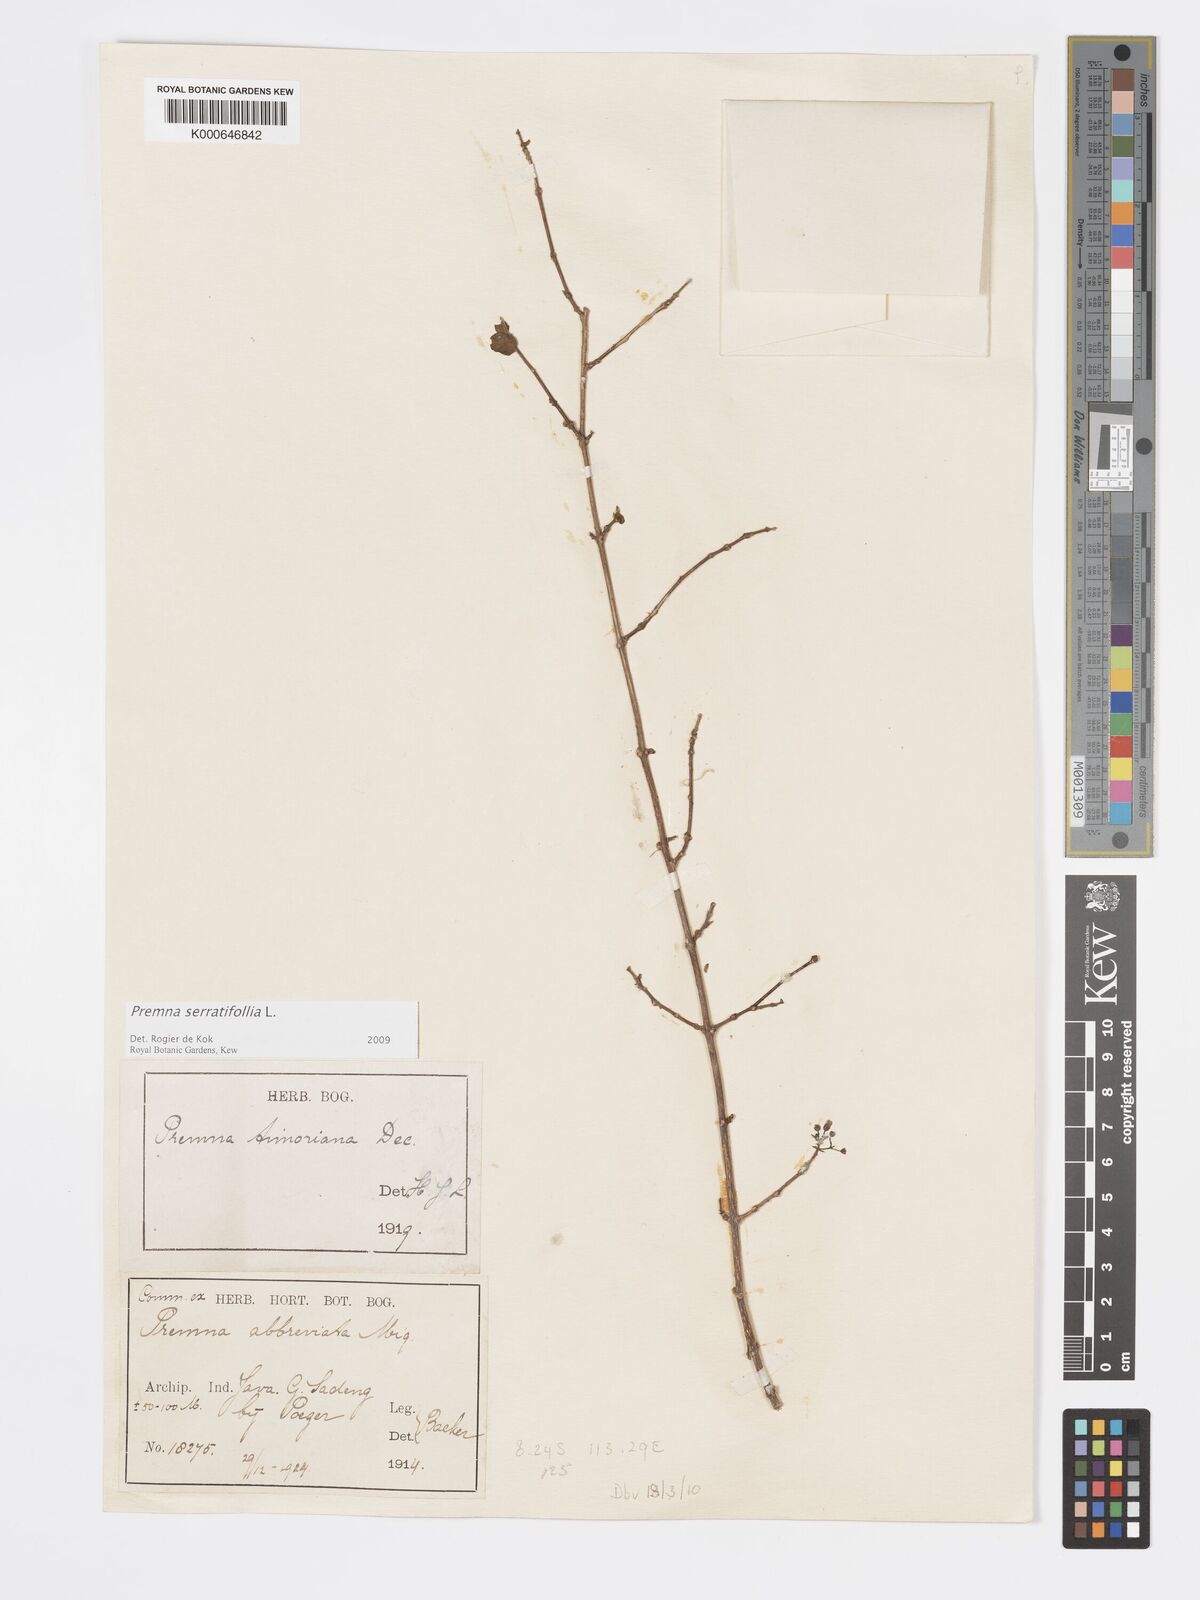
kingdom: Plantae
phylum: Tracheophyta
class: Magnoliopsida
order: Lamiales
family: Lamiaceae
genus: Premna
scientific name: Premna serratifolia
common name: Bastard guelder
